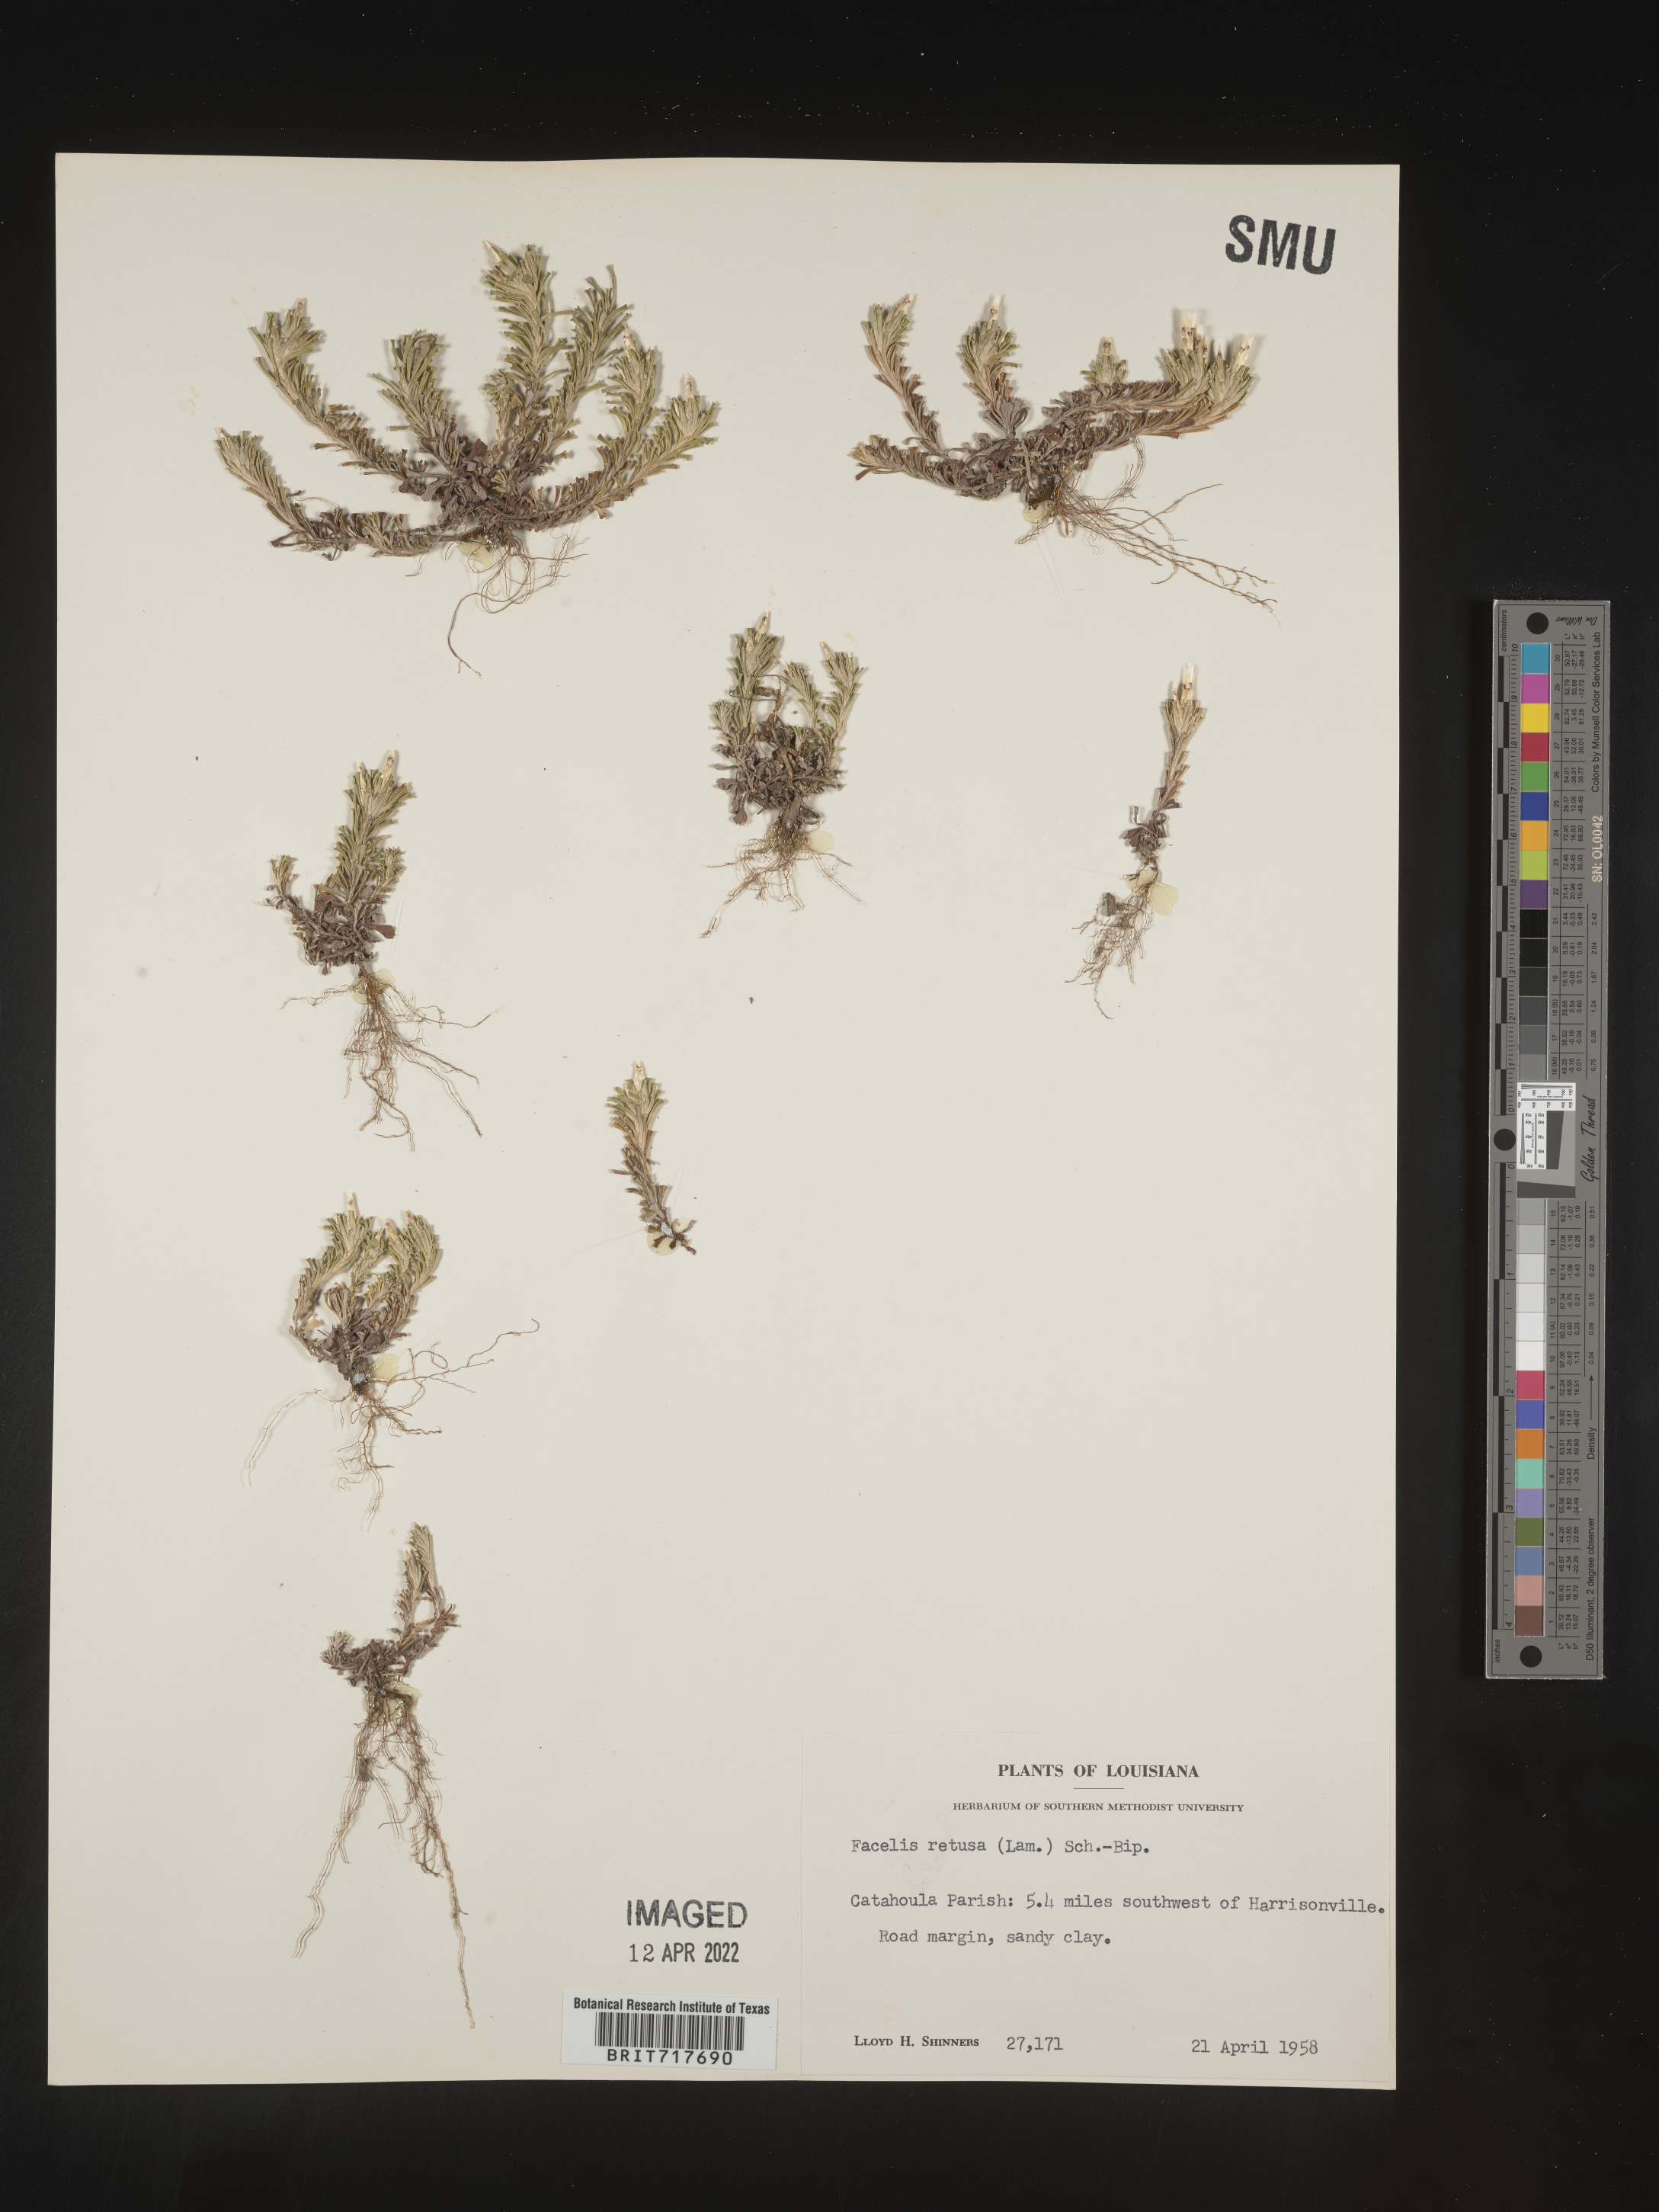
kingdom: Plantae
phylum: Tracheophyta
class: Magnoliopsida
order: Asterales
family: Asteraceae
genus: Facelis
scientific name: Facelis retusa
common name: Annual trampweed
